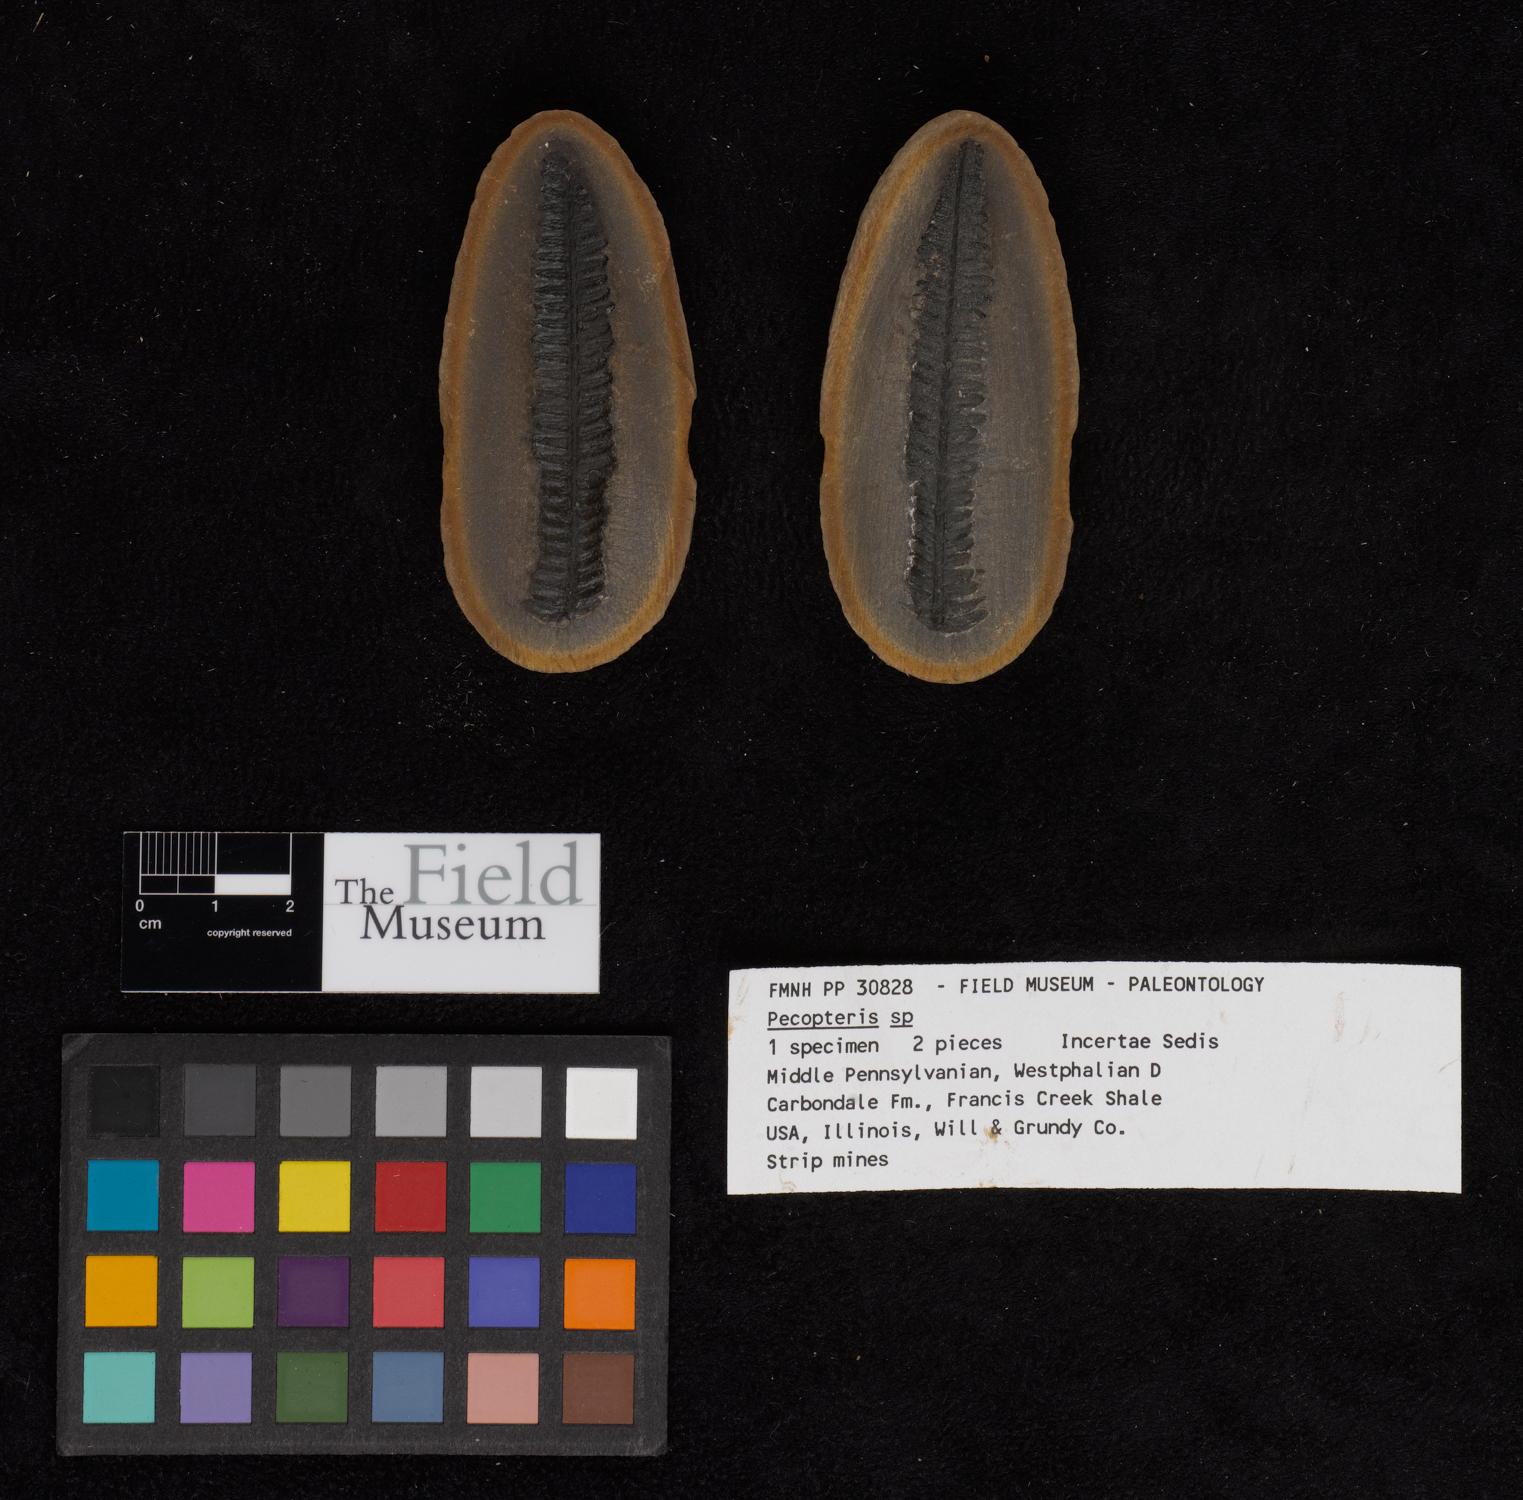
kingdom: Plantae
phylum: Tracheophyta
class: Polypodiopsida
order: Marattiales
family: Asterothecaceae
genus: Pecopteris
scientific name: Pecopteris
